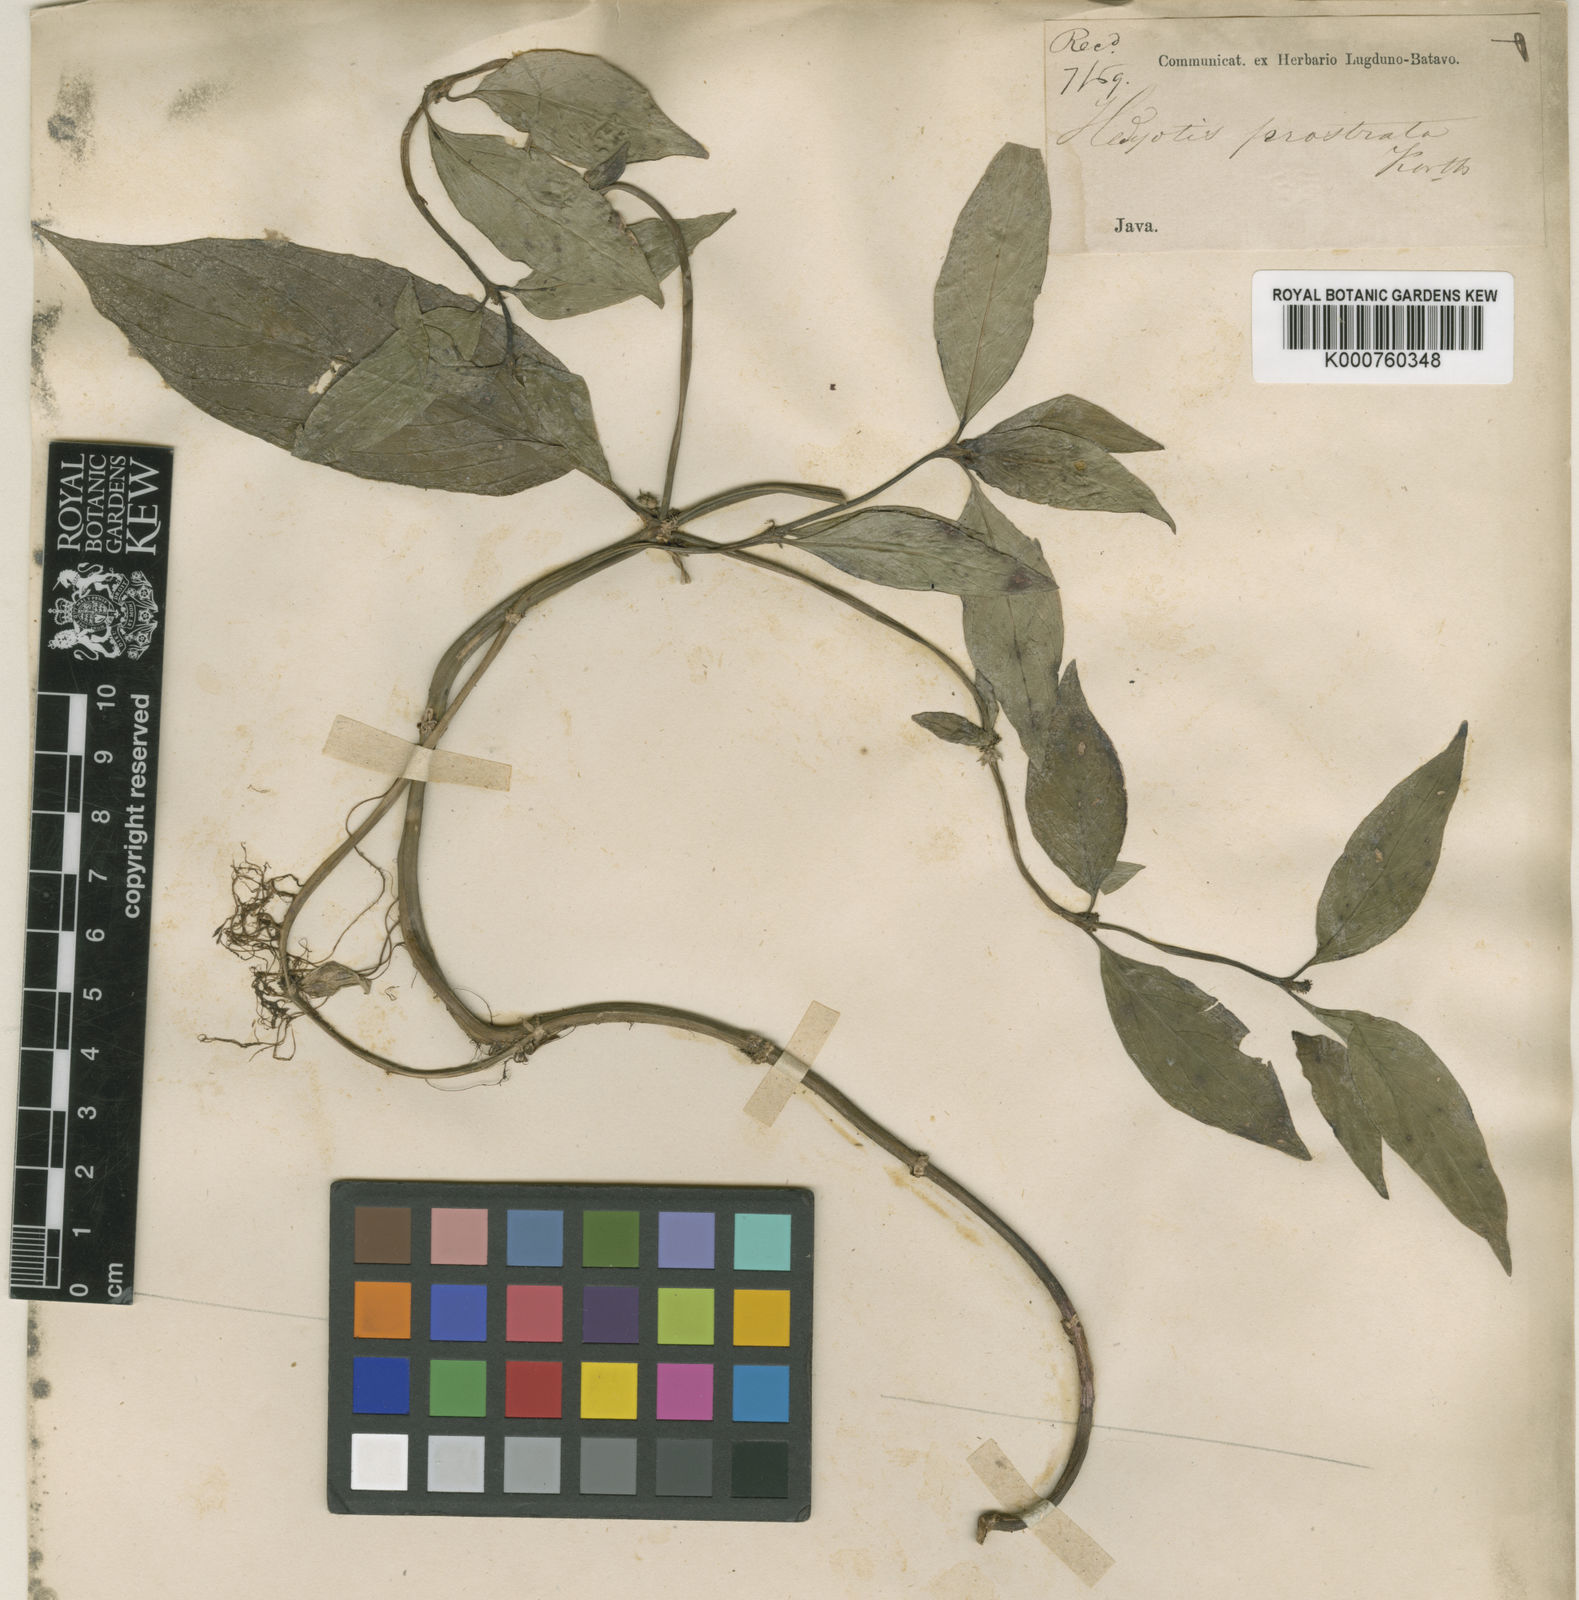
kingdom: Plantae
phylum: Tracheophyta
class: Magnoliopsida
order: Gentianales
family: Rubiaceae
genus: Hedyotis
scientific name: Hedyotis prostrata
